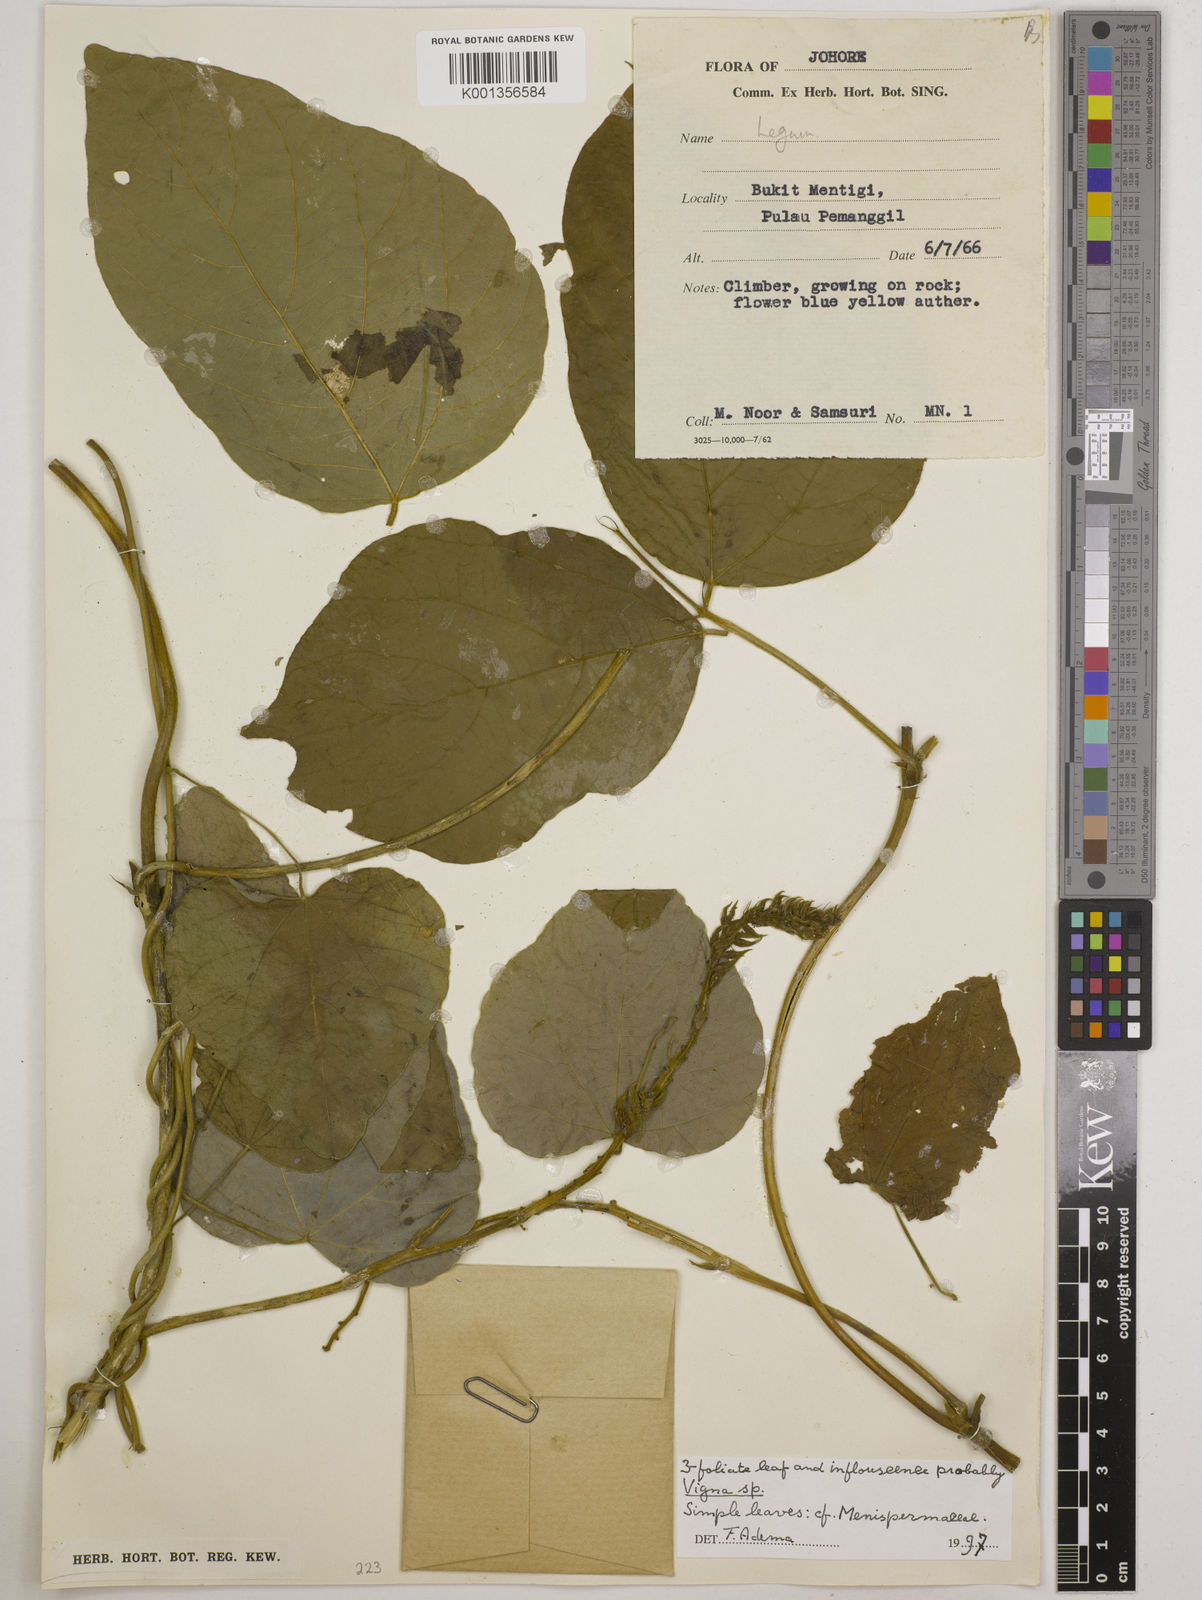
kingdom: Plantae
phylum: Tracheophyta
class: Magnoliopsida
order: Fabales
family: Fabaceae
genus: Vigna
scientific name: Vigna
